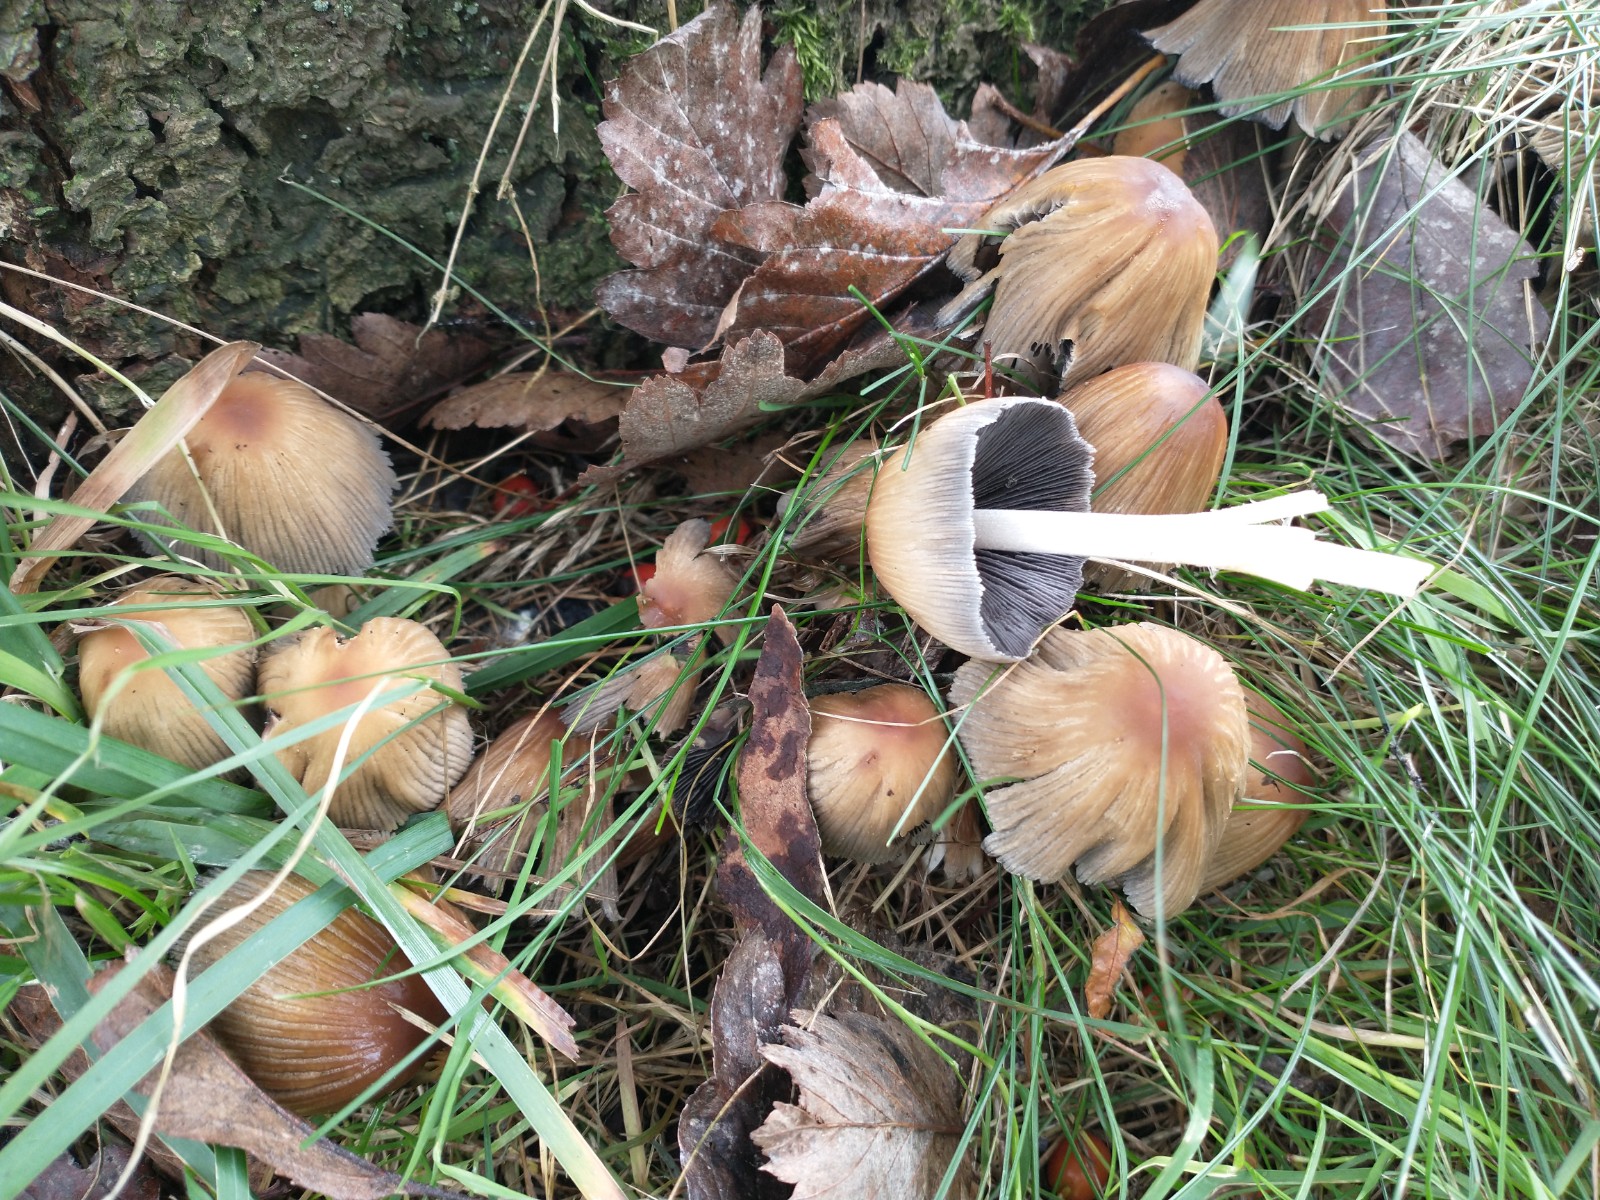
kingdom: Fungi
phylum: Basidiomycota
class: Agaricomycetes
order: Agaricales
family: Psathyrellaceae
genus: Coprinellus
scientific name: Coprinellus micaceus
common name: glimmer-blækhat
